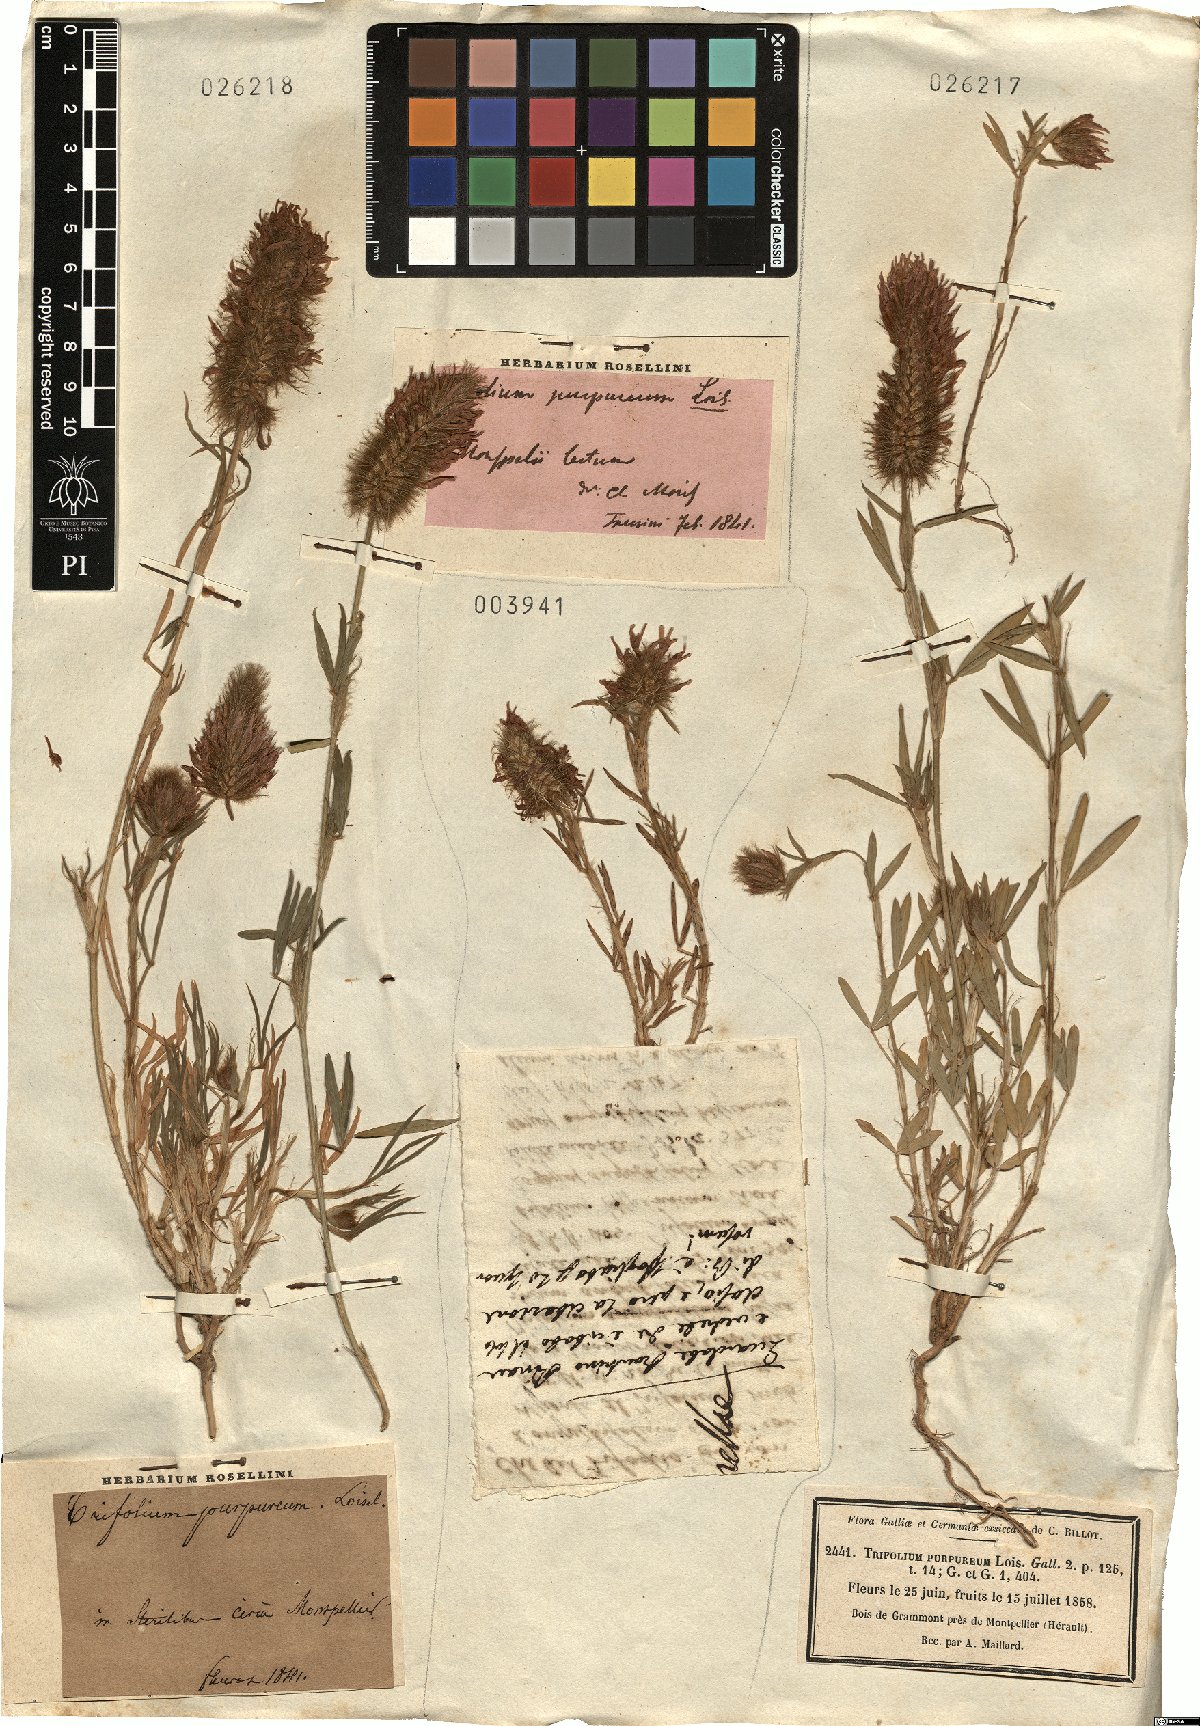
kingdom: Plantae
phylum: Tracheophyta
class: Magnoliopsida
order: Fabales
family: Fabaceae
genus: Trifolium
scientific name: Trifolium purpureum
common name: Purple clover
